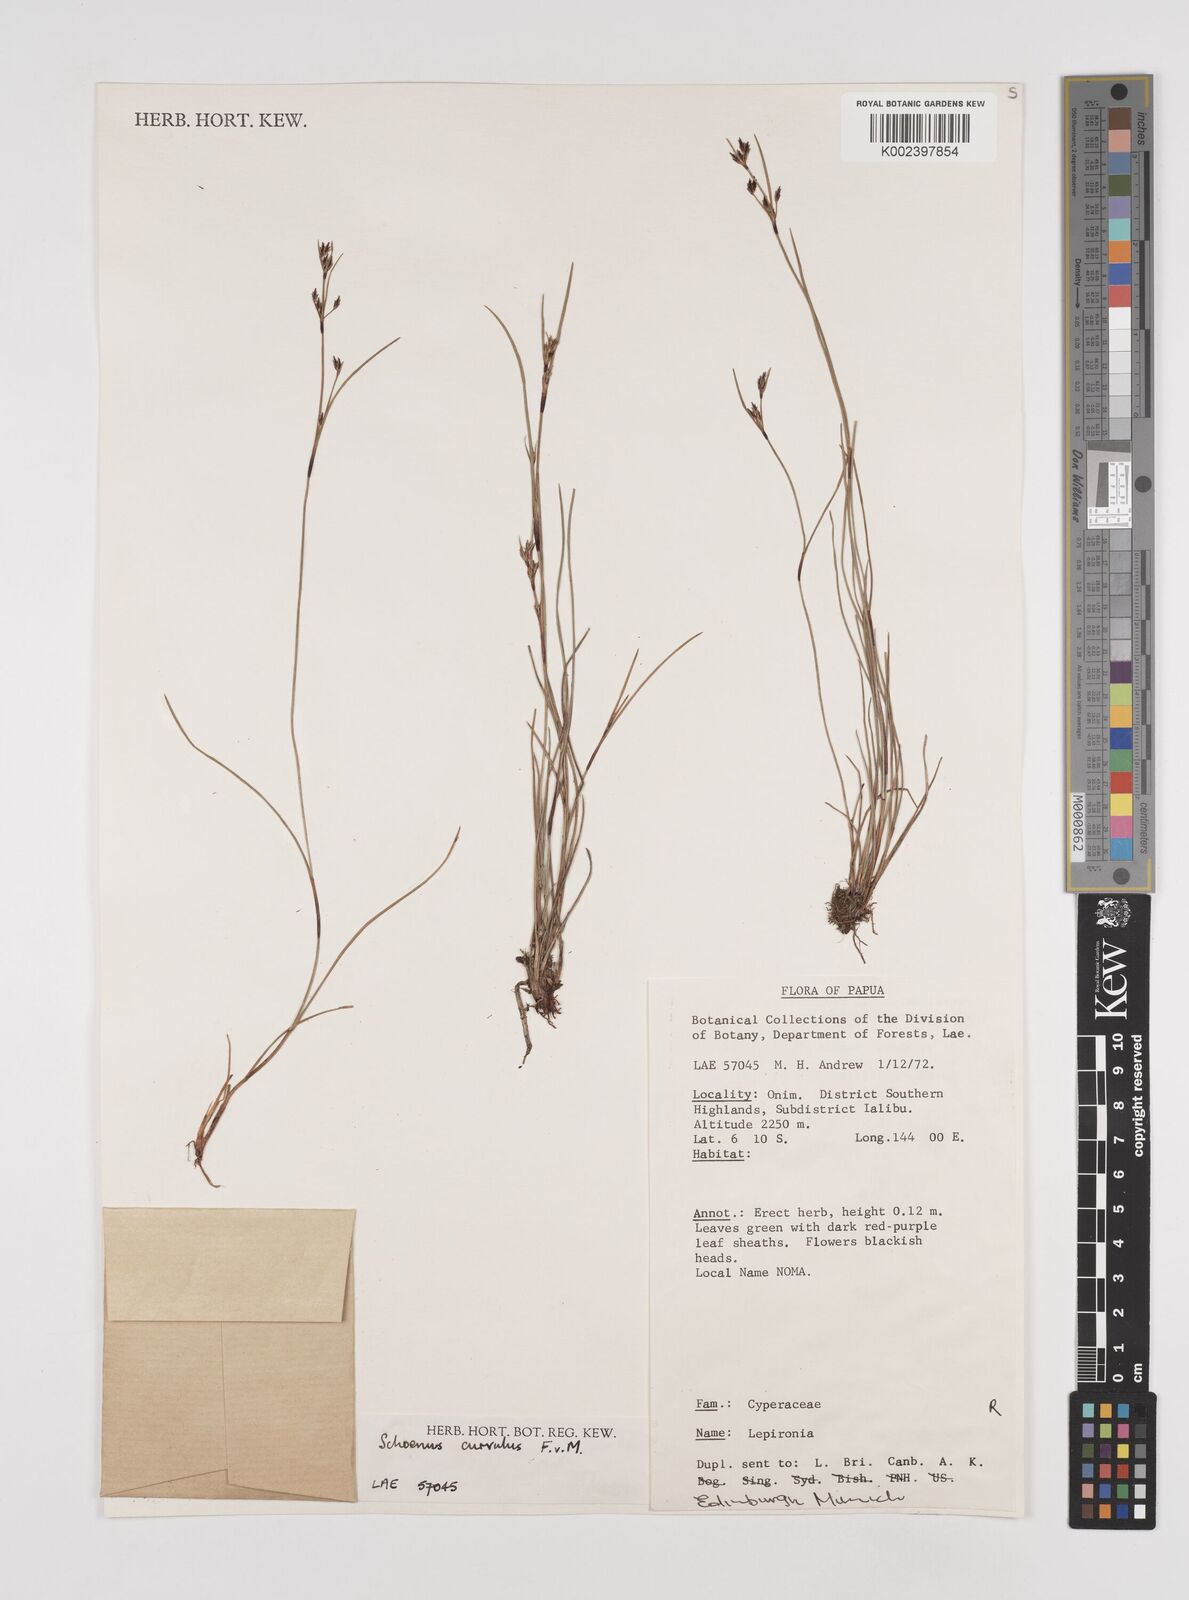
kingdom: Plantae
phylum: Tracheophyta
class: Liliopsida
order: Poales
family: Cyperaceae
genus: Schoenus
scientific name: Schoenus curvulus
